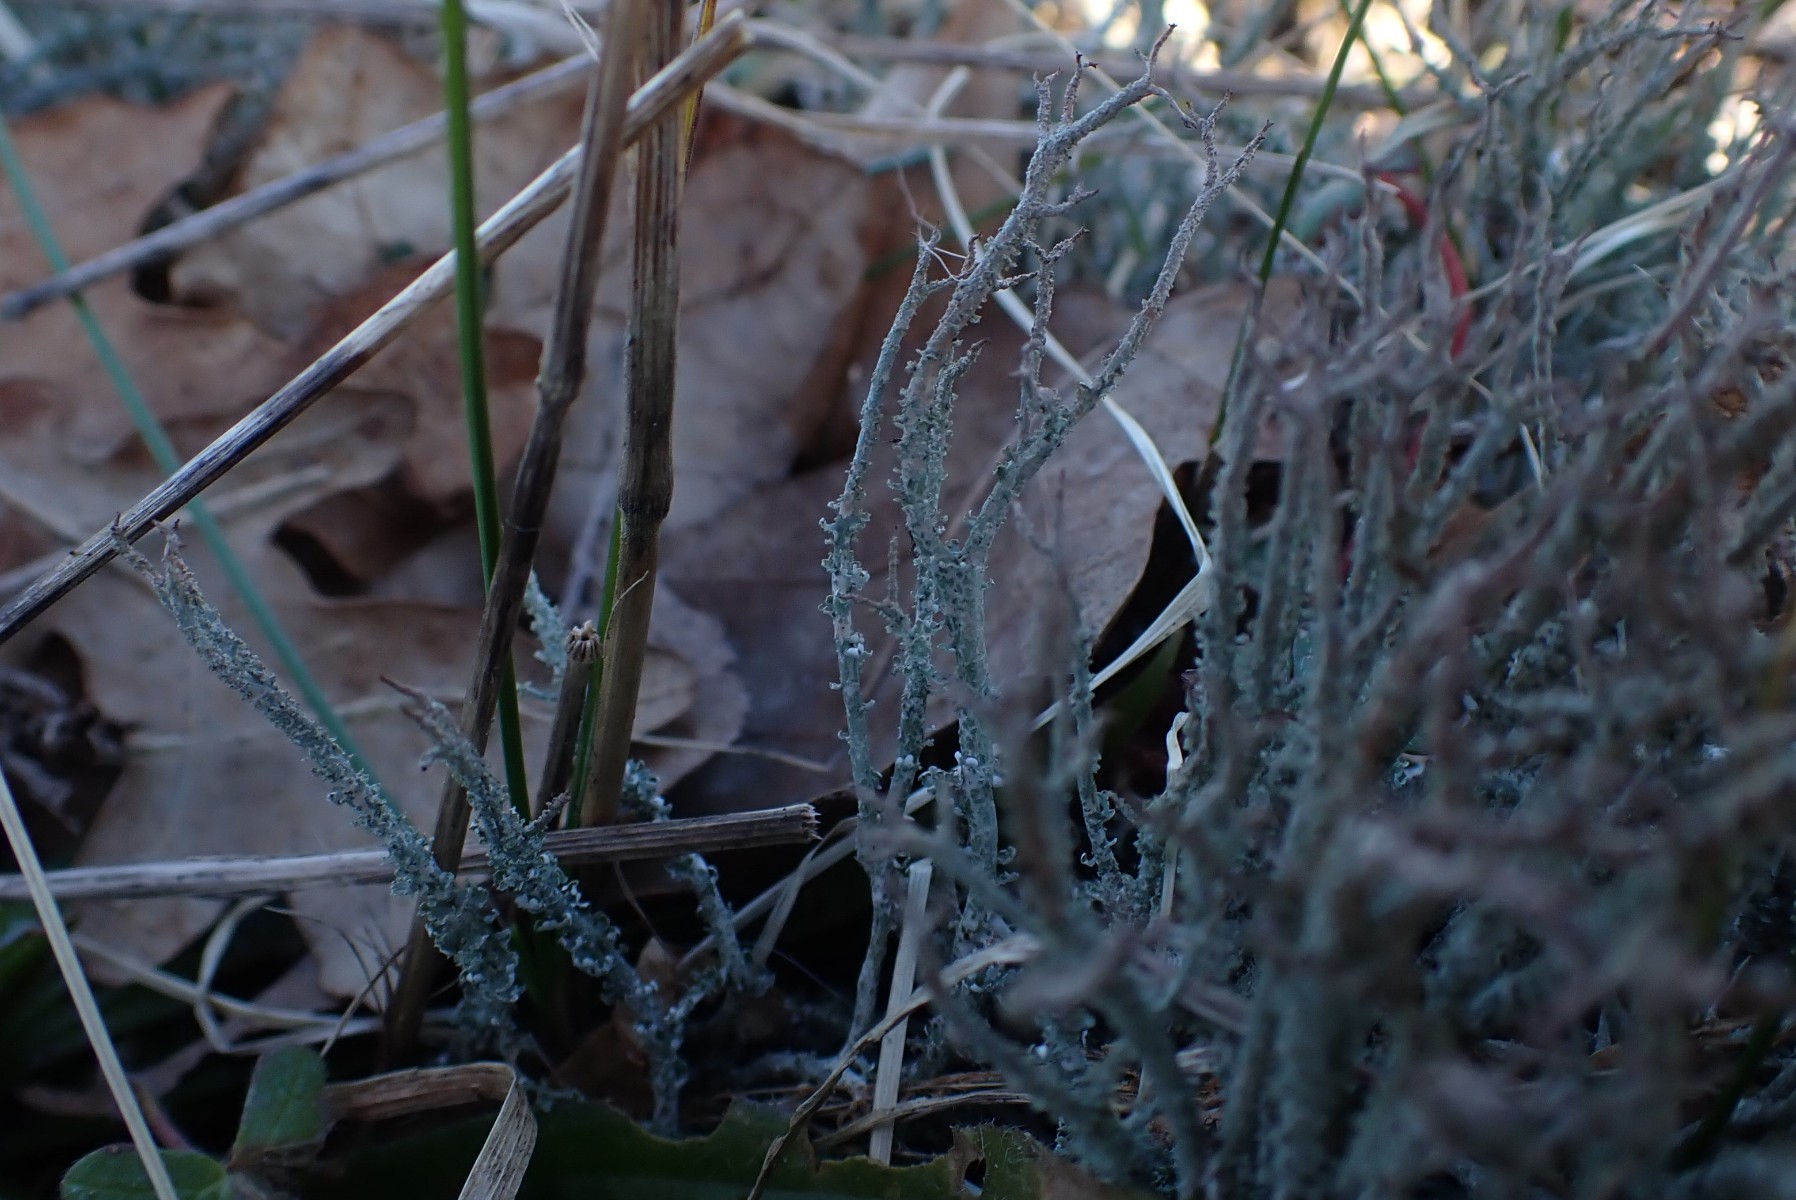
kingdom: Fungi
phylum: Ascomycota
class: Lecanoromycetes
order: Lecanorales
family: Cladoniaceae
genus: Cladonia
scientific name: Cladonia scabriuscula
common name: ru bægerlav
